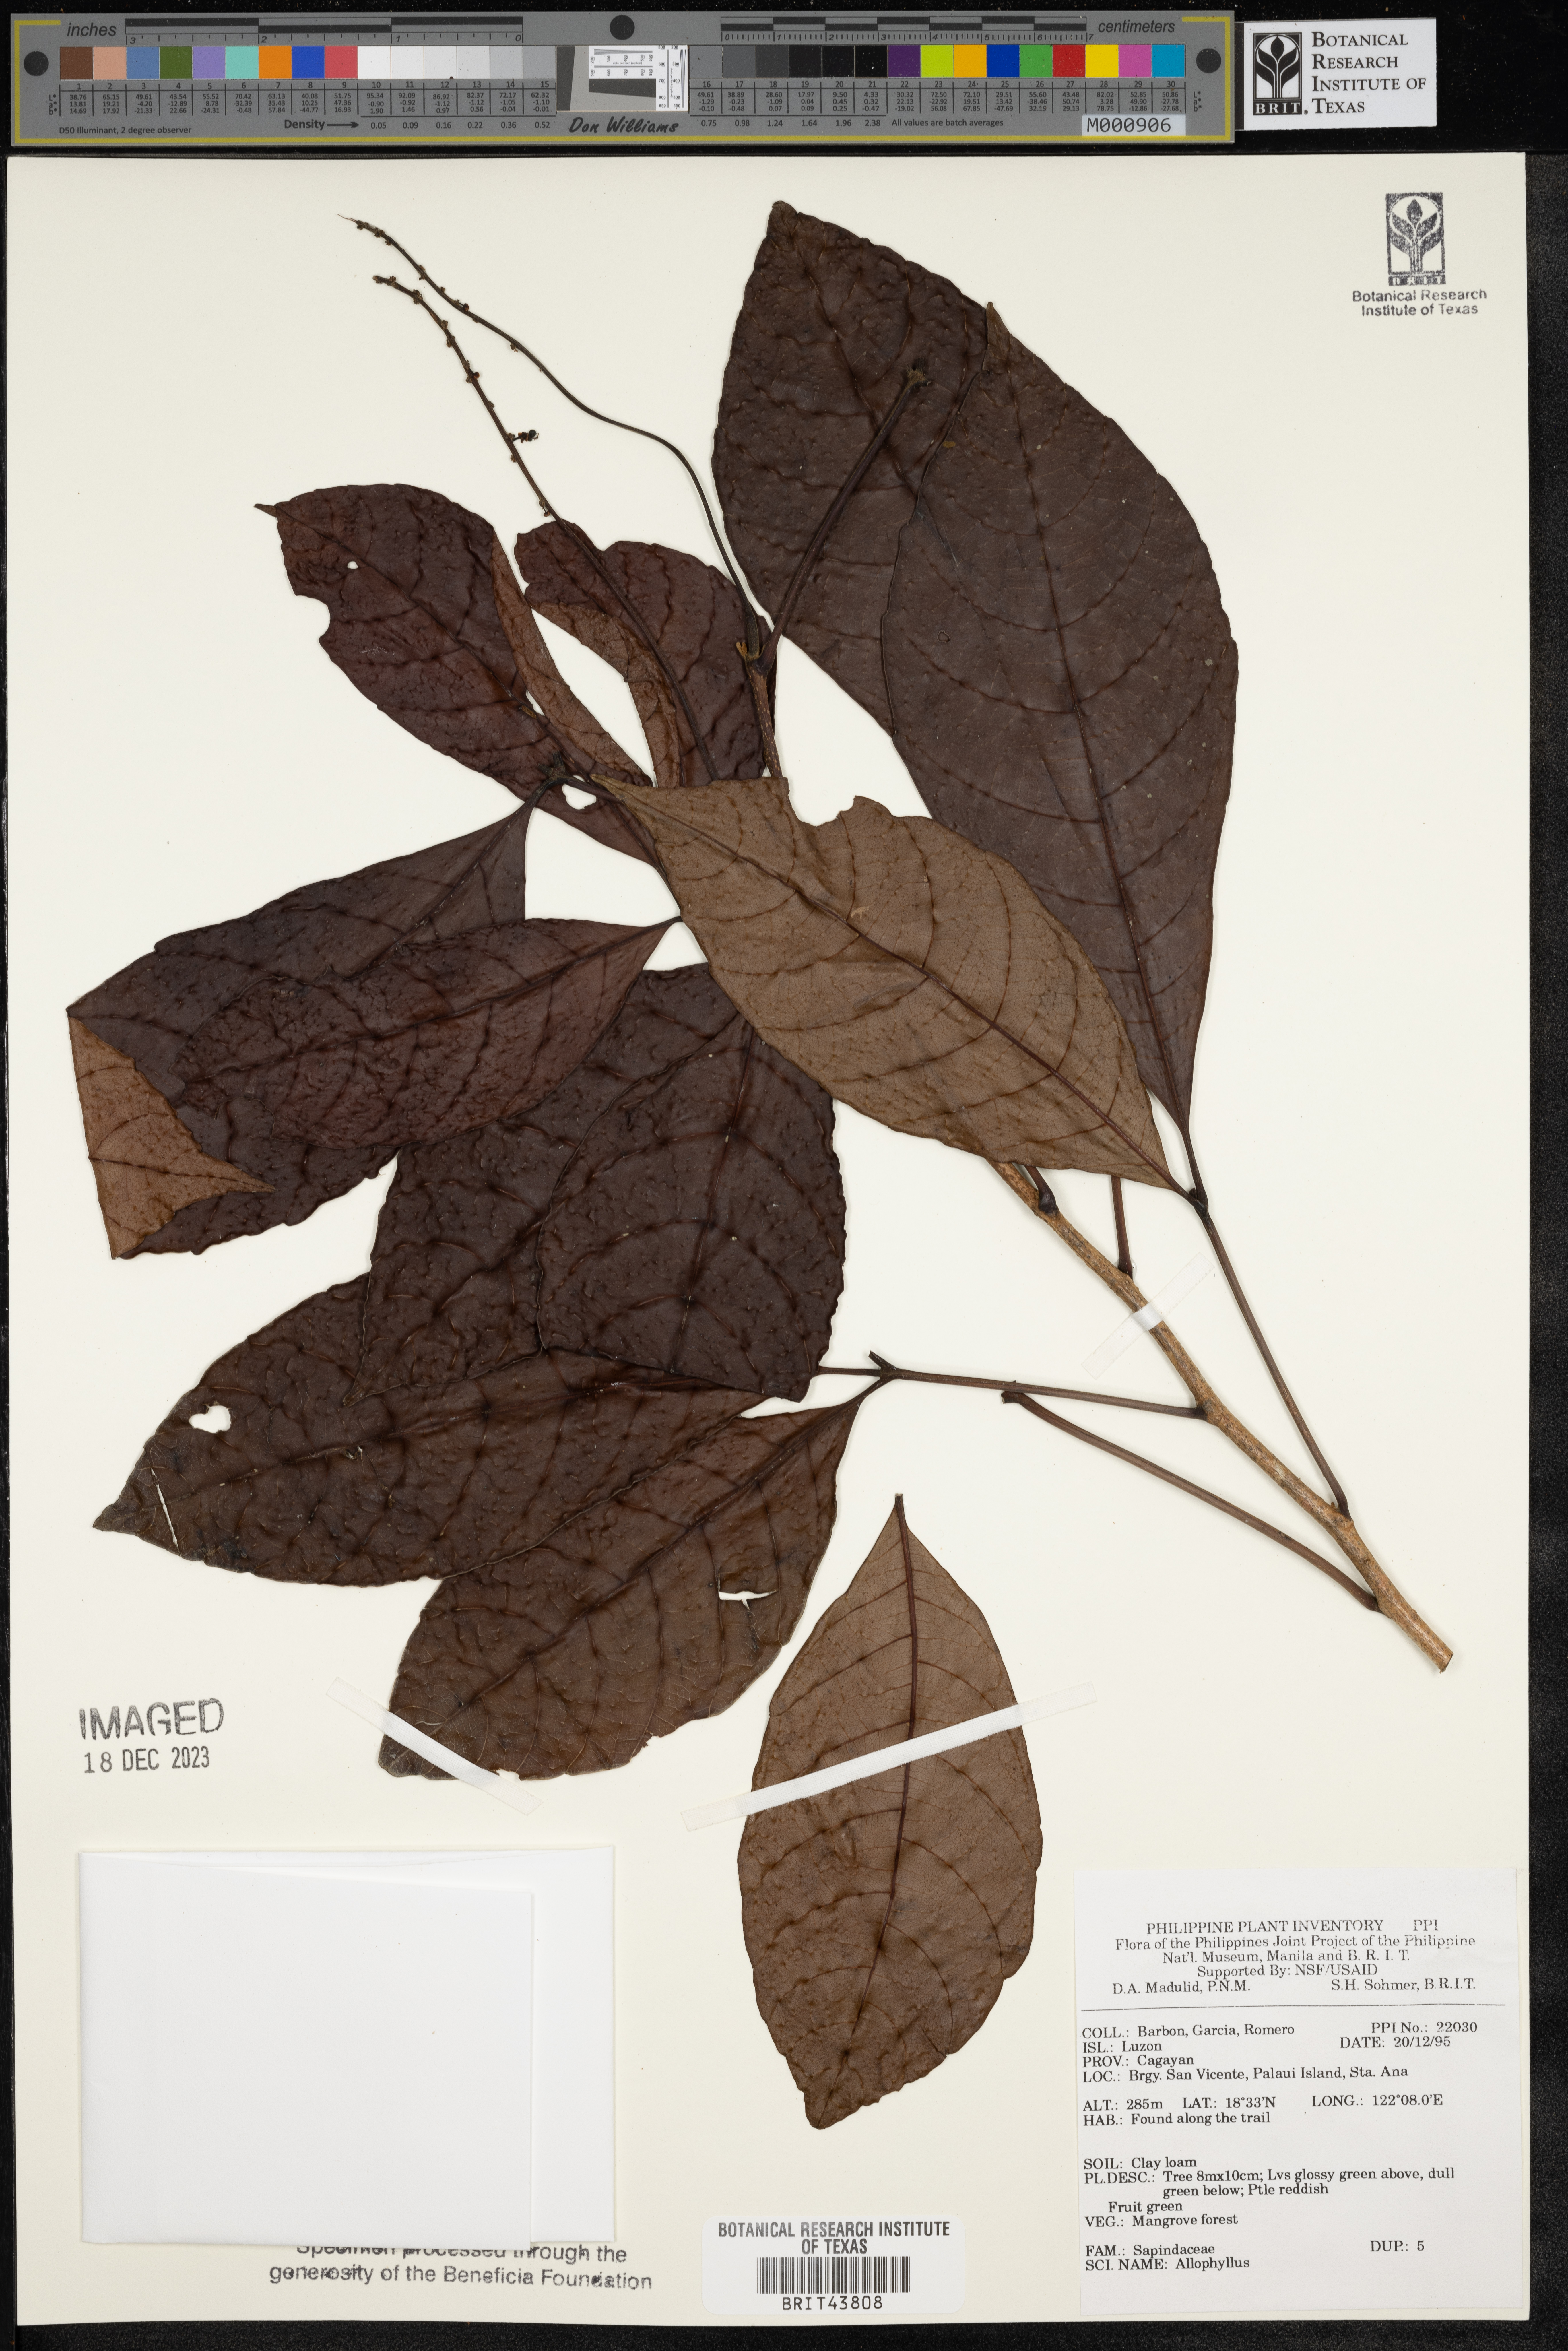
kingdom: Plantae
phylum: Tracheophyta
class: Magnoliopsida
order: Sapindales
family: Sapindaceae
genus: Allophylus
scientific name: Allophylus
